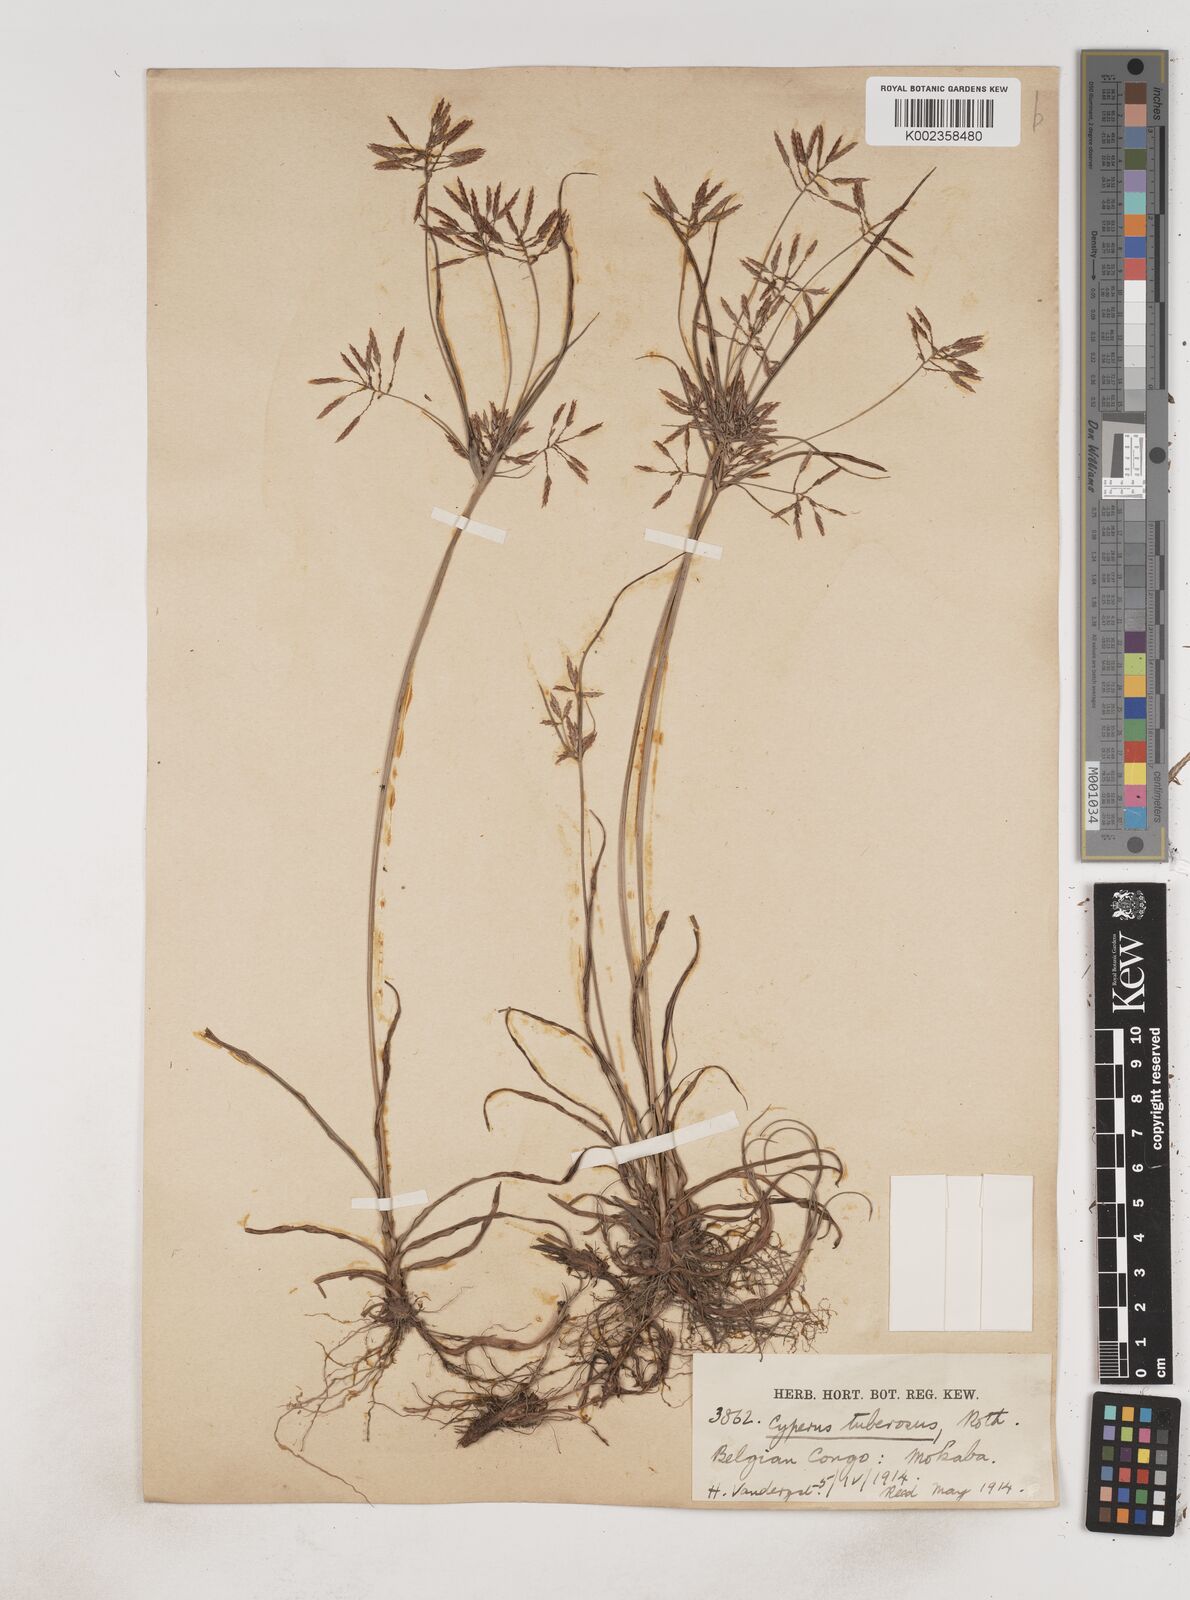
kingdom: Plantae
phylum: Tracheophyta
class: Liliopsida
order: Poales
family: Cyperaceae
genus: Cyperus
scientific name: Cyperus dilatatus
